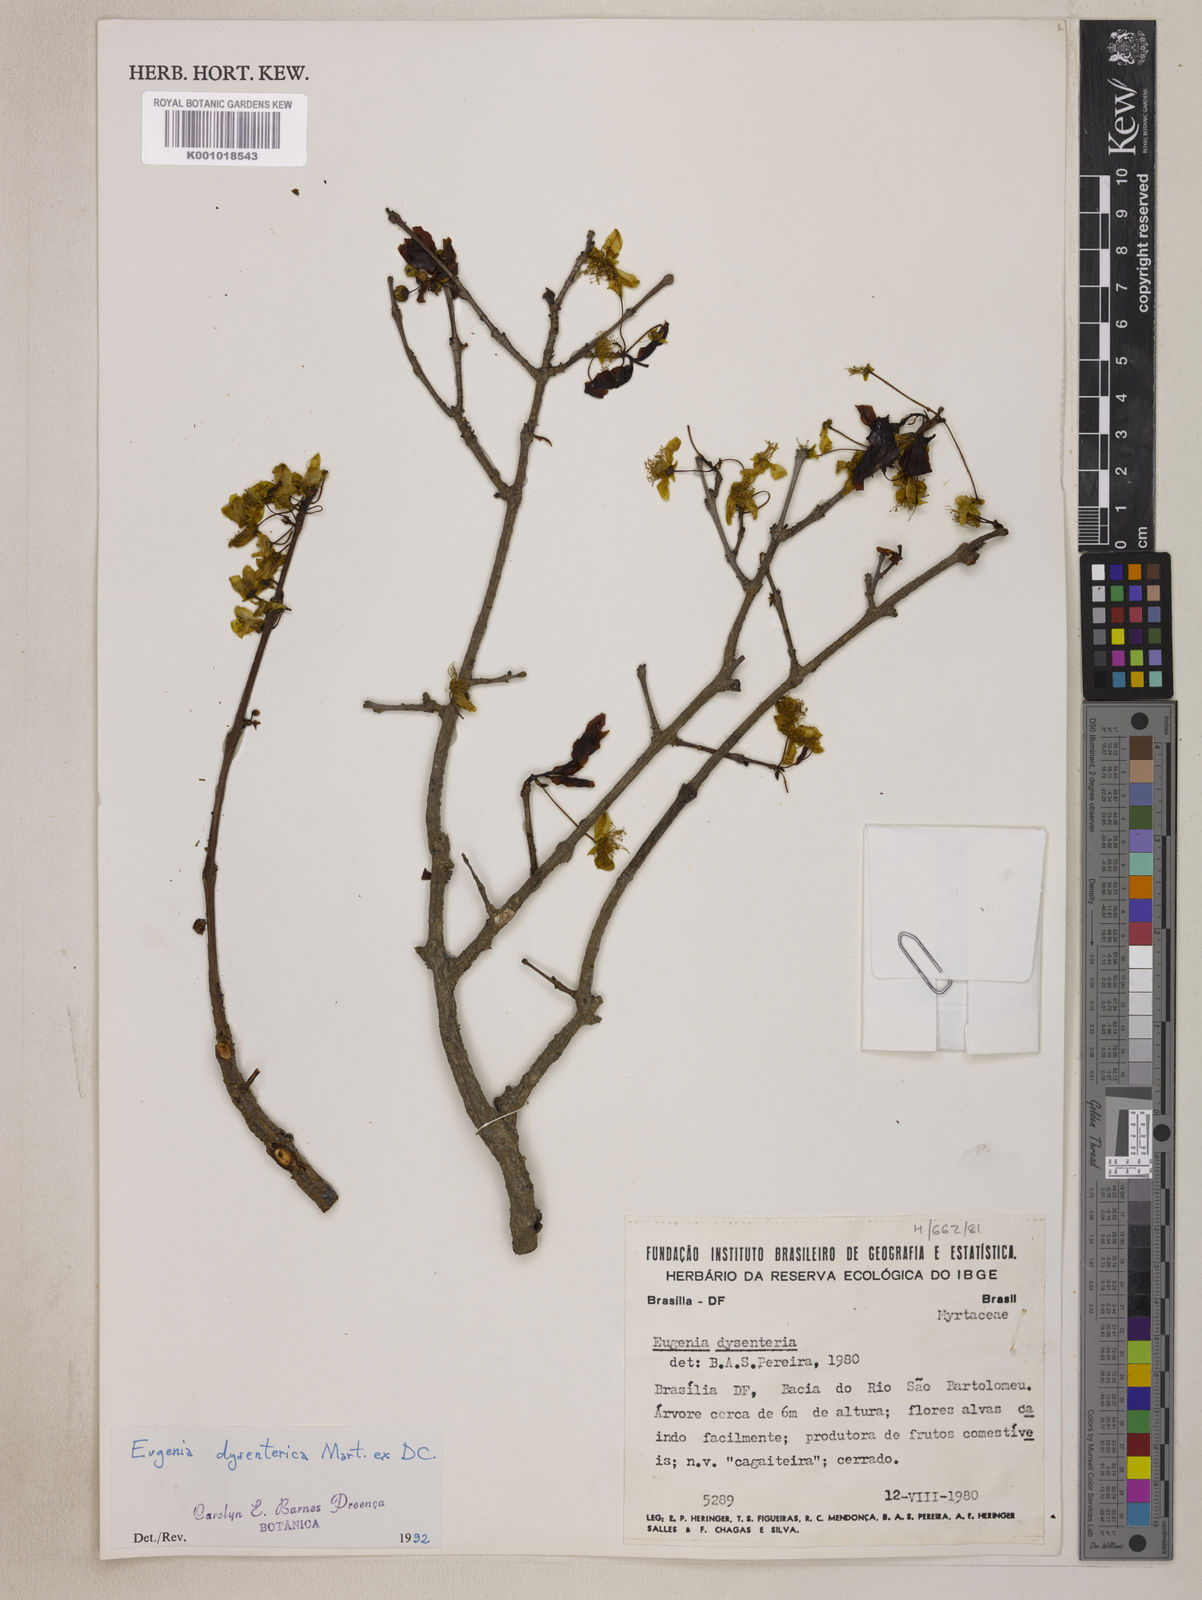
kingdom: Plantae
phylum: Tracheophyta
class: Magnoliopsida
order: Myrtales
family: Myrtaceae
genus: Eugenia
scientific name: Eugenia dysenterica
